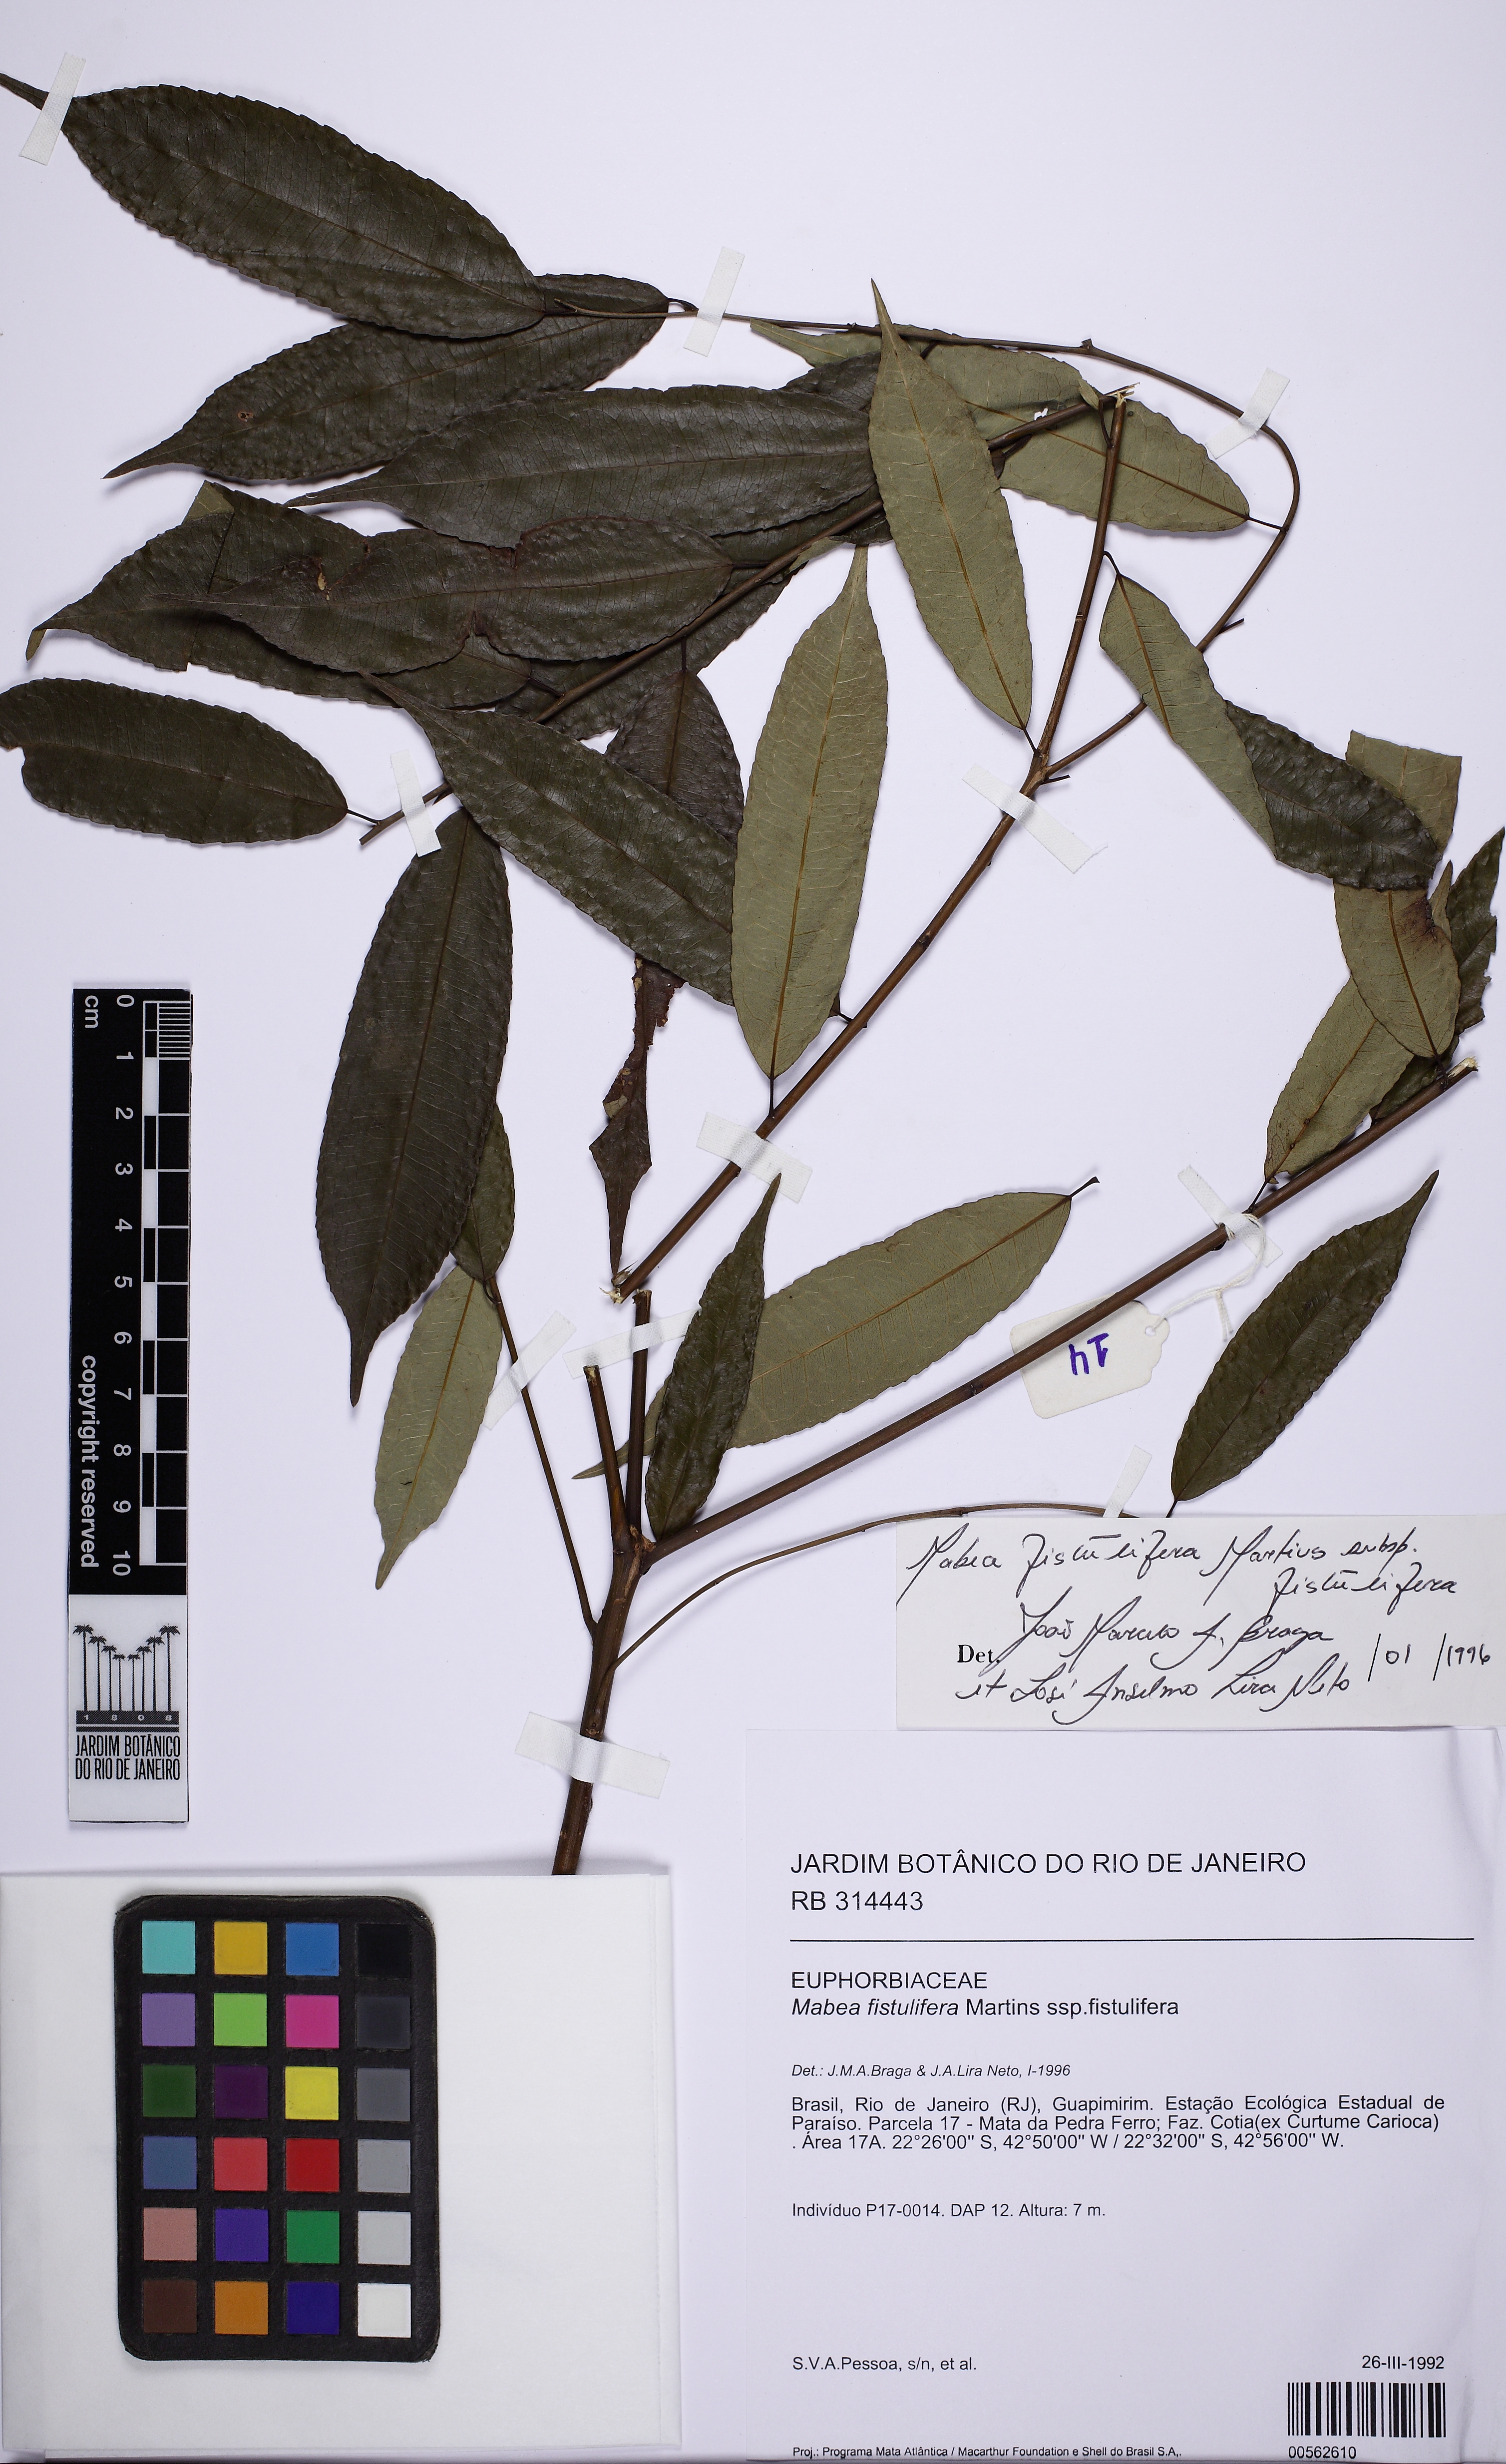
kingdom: Plantae
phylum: Tracheophyta
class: Magnoliopsida
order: Malpighiales
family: Euphorbiaceae
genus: Mabea
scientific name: Mabea fistulifera
